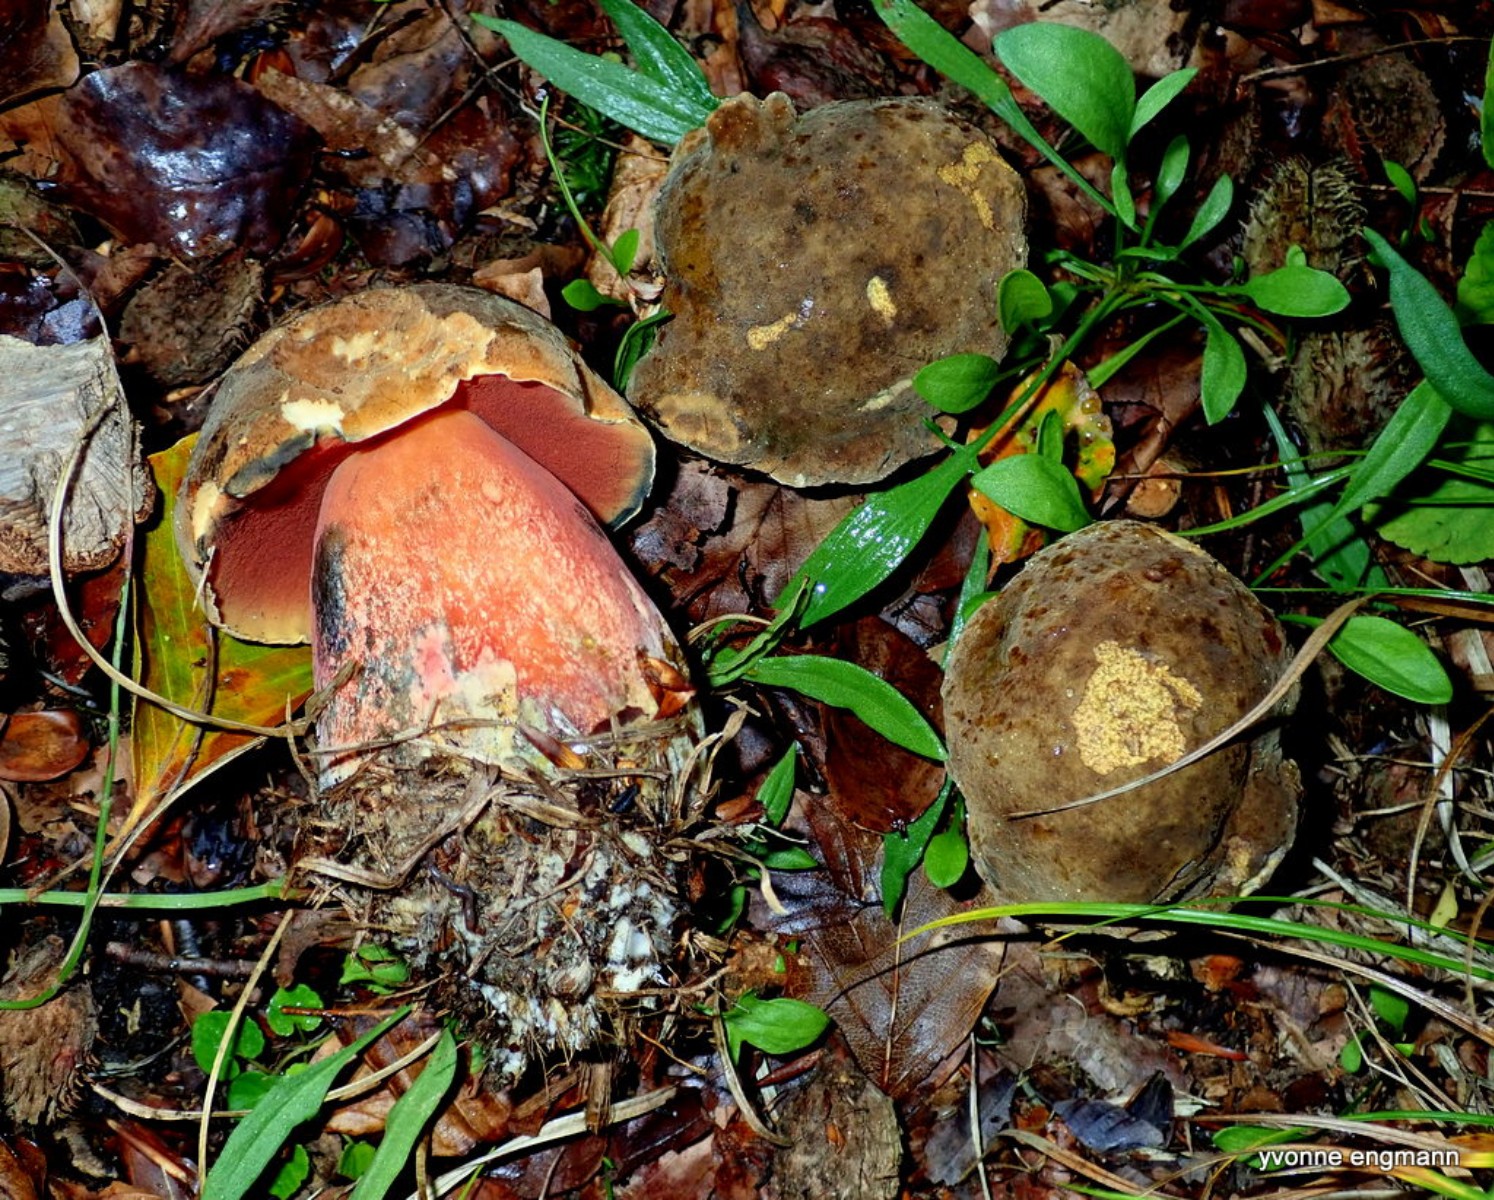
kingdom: Fungi
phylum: Basidiomycota
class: Agaricomycetes
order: Boletales
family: Boletaceae
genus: Neoboletus
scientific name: Neoboletus erythropus
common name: punktstokket indigorørhat
